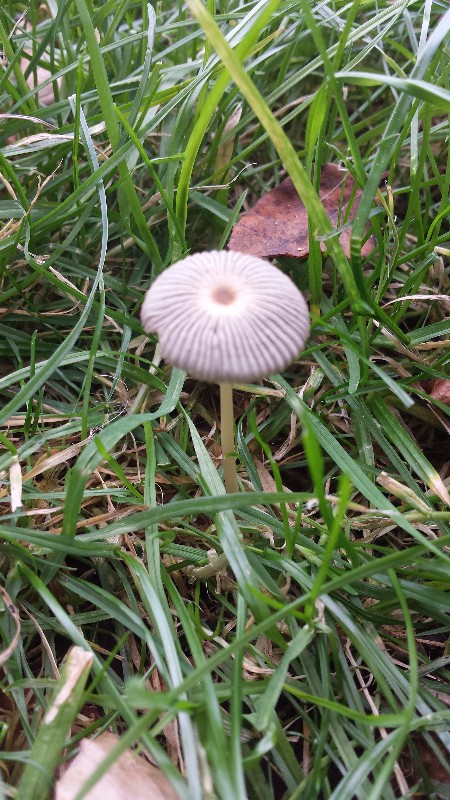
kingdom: Fungi
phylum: Basidiomycota
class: Agaricomycetes
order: Agaricales
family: Psathyrellaceae
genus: Parasola
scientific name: Parasola
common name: hjulhat
